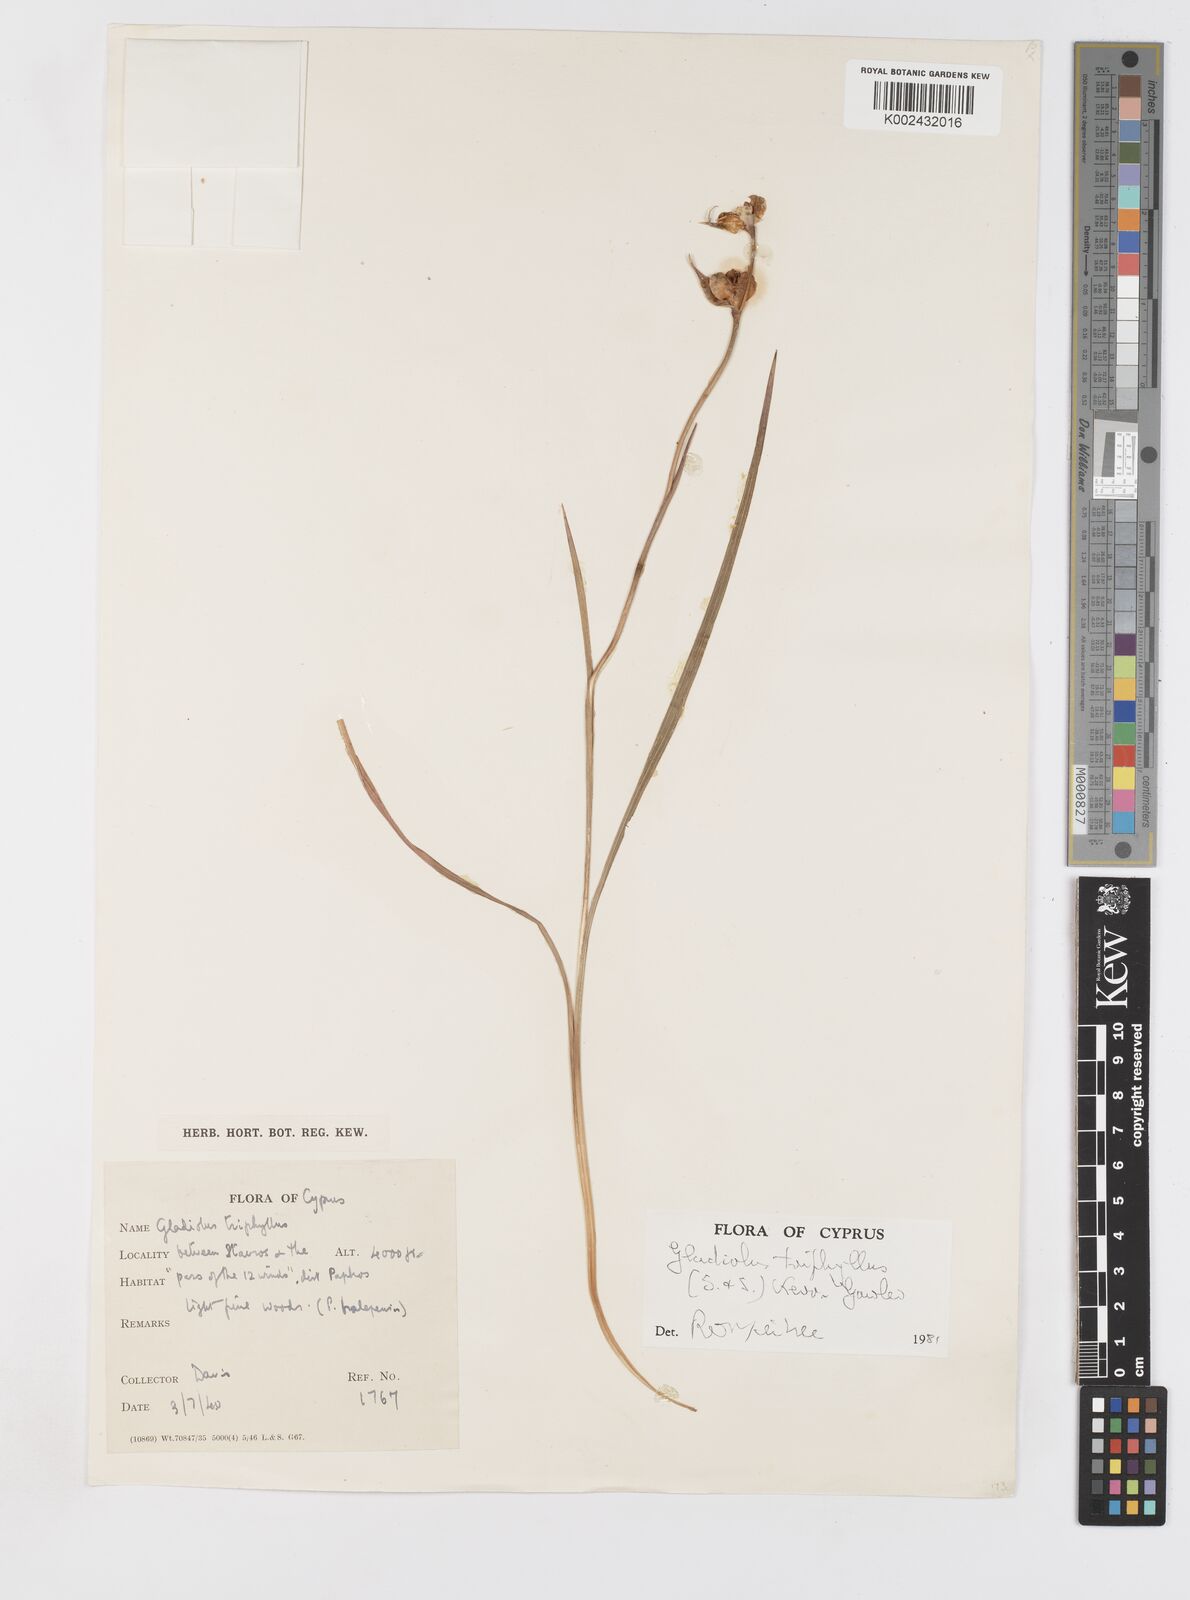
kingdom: Plantae
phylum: Tracheophyta
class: Liliopsida
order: Asparagales
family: Iridaceae
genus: Gladiolus
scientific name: Gladiolus triphyllus
